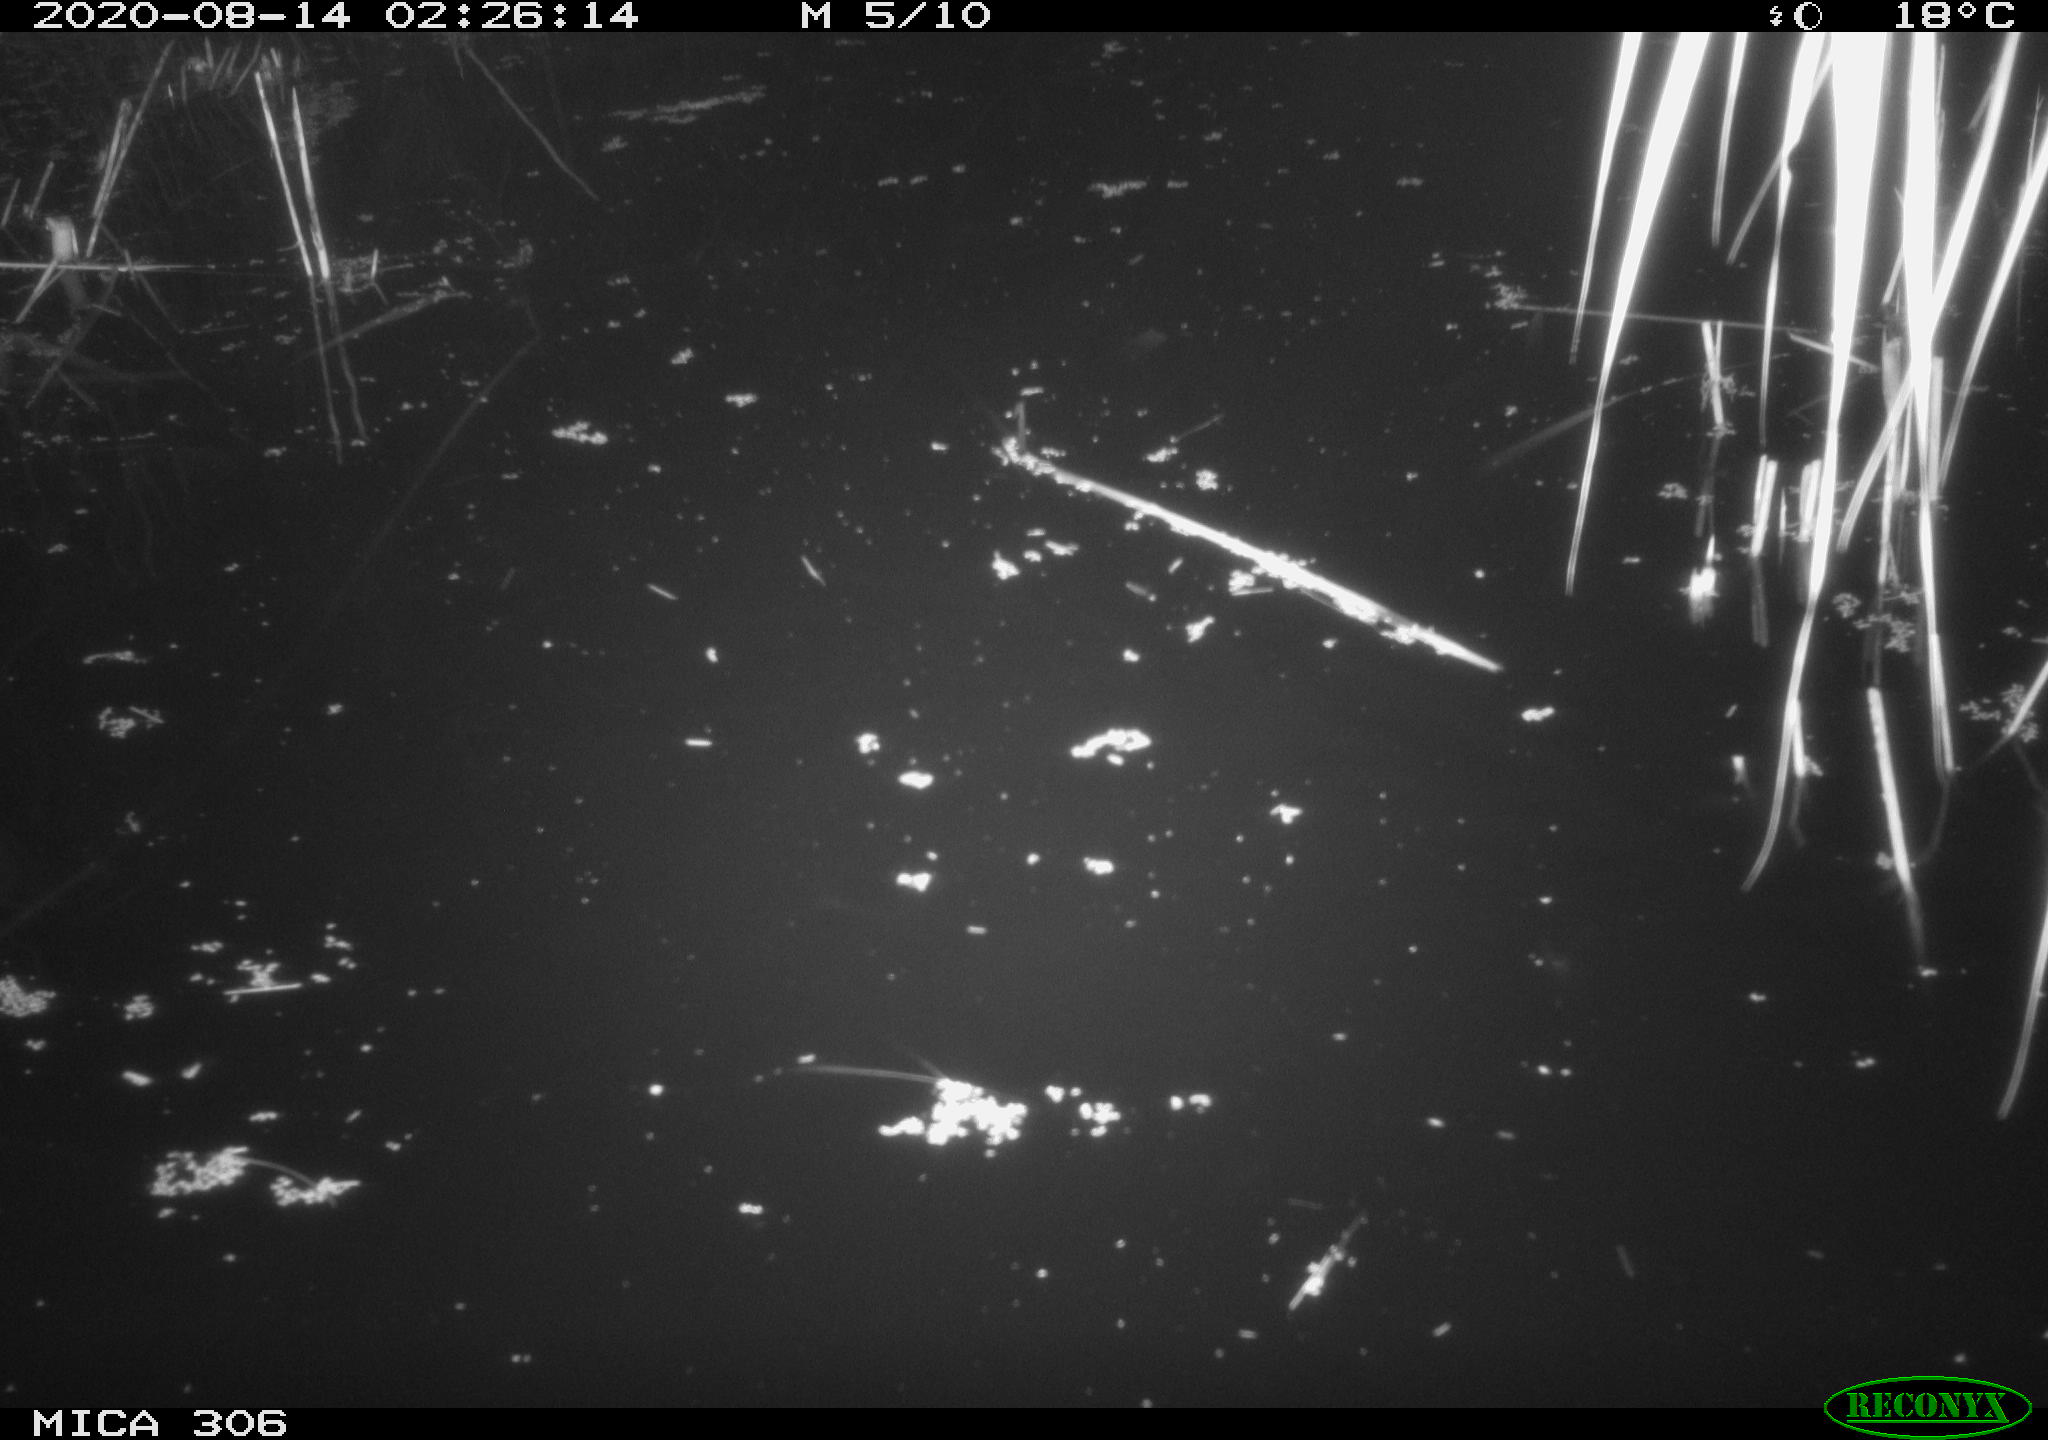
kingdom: Animalia
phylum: Chordata
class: Mammalia
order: Rodentia
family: Muridae
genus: Rattus
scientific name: Rattus norvegicus
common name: Brown rat
